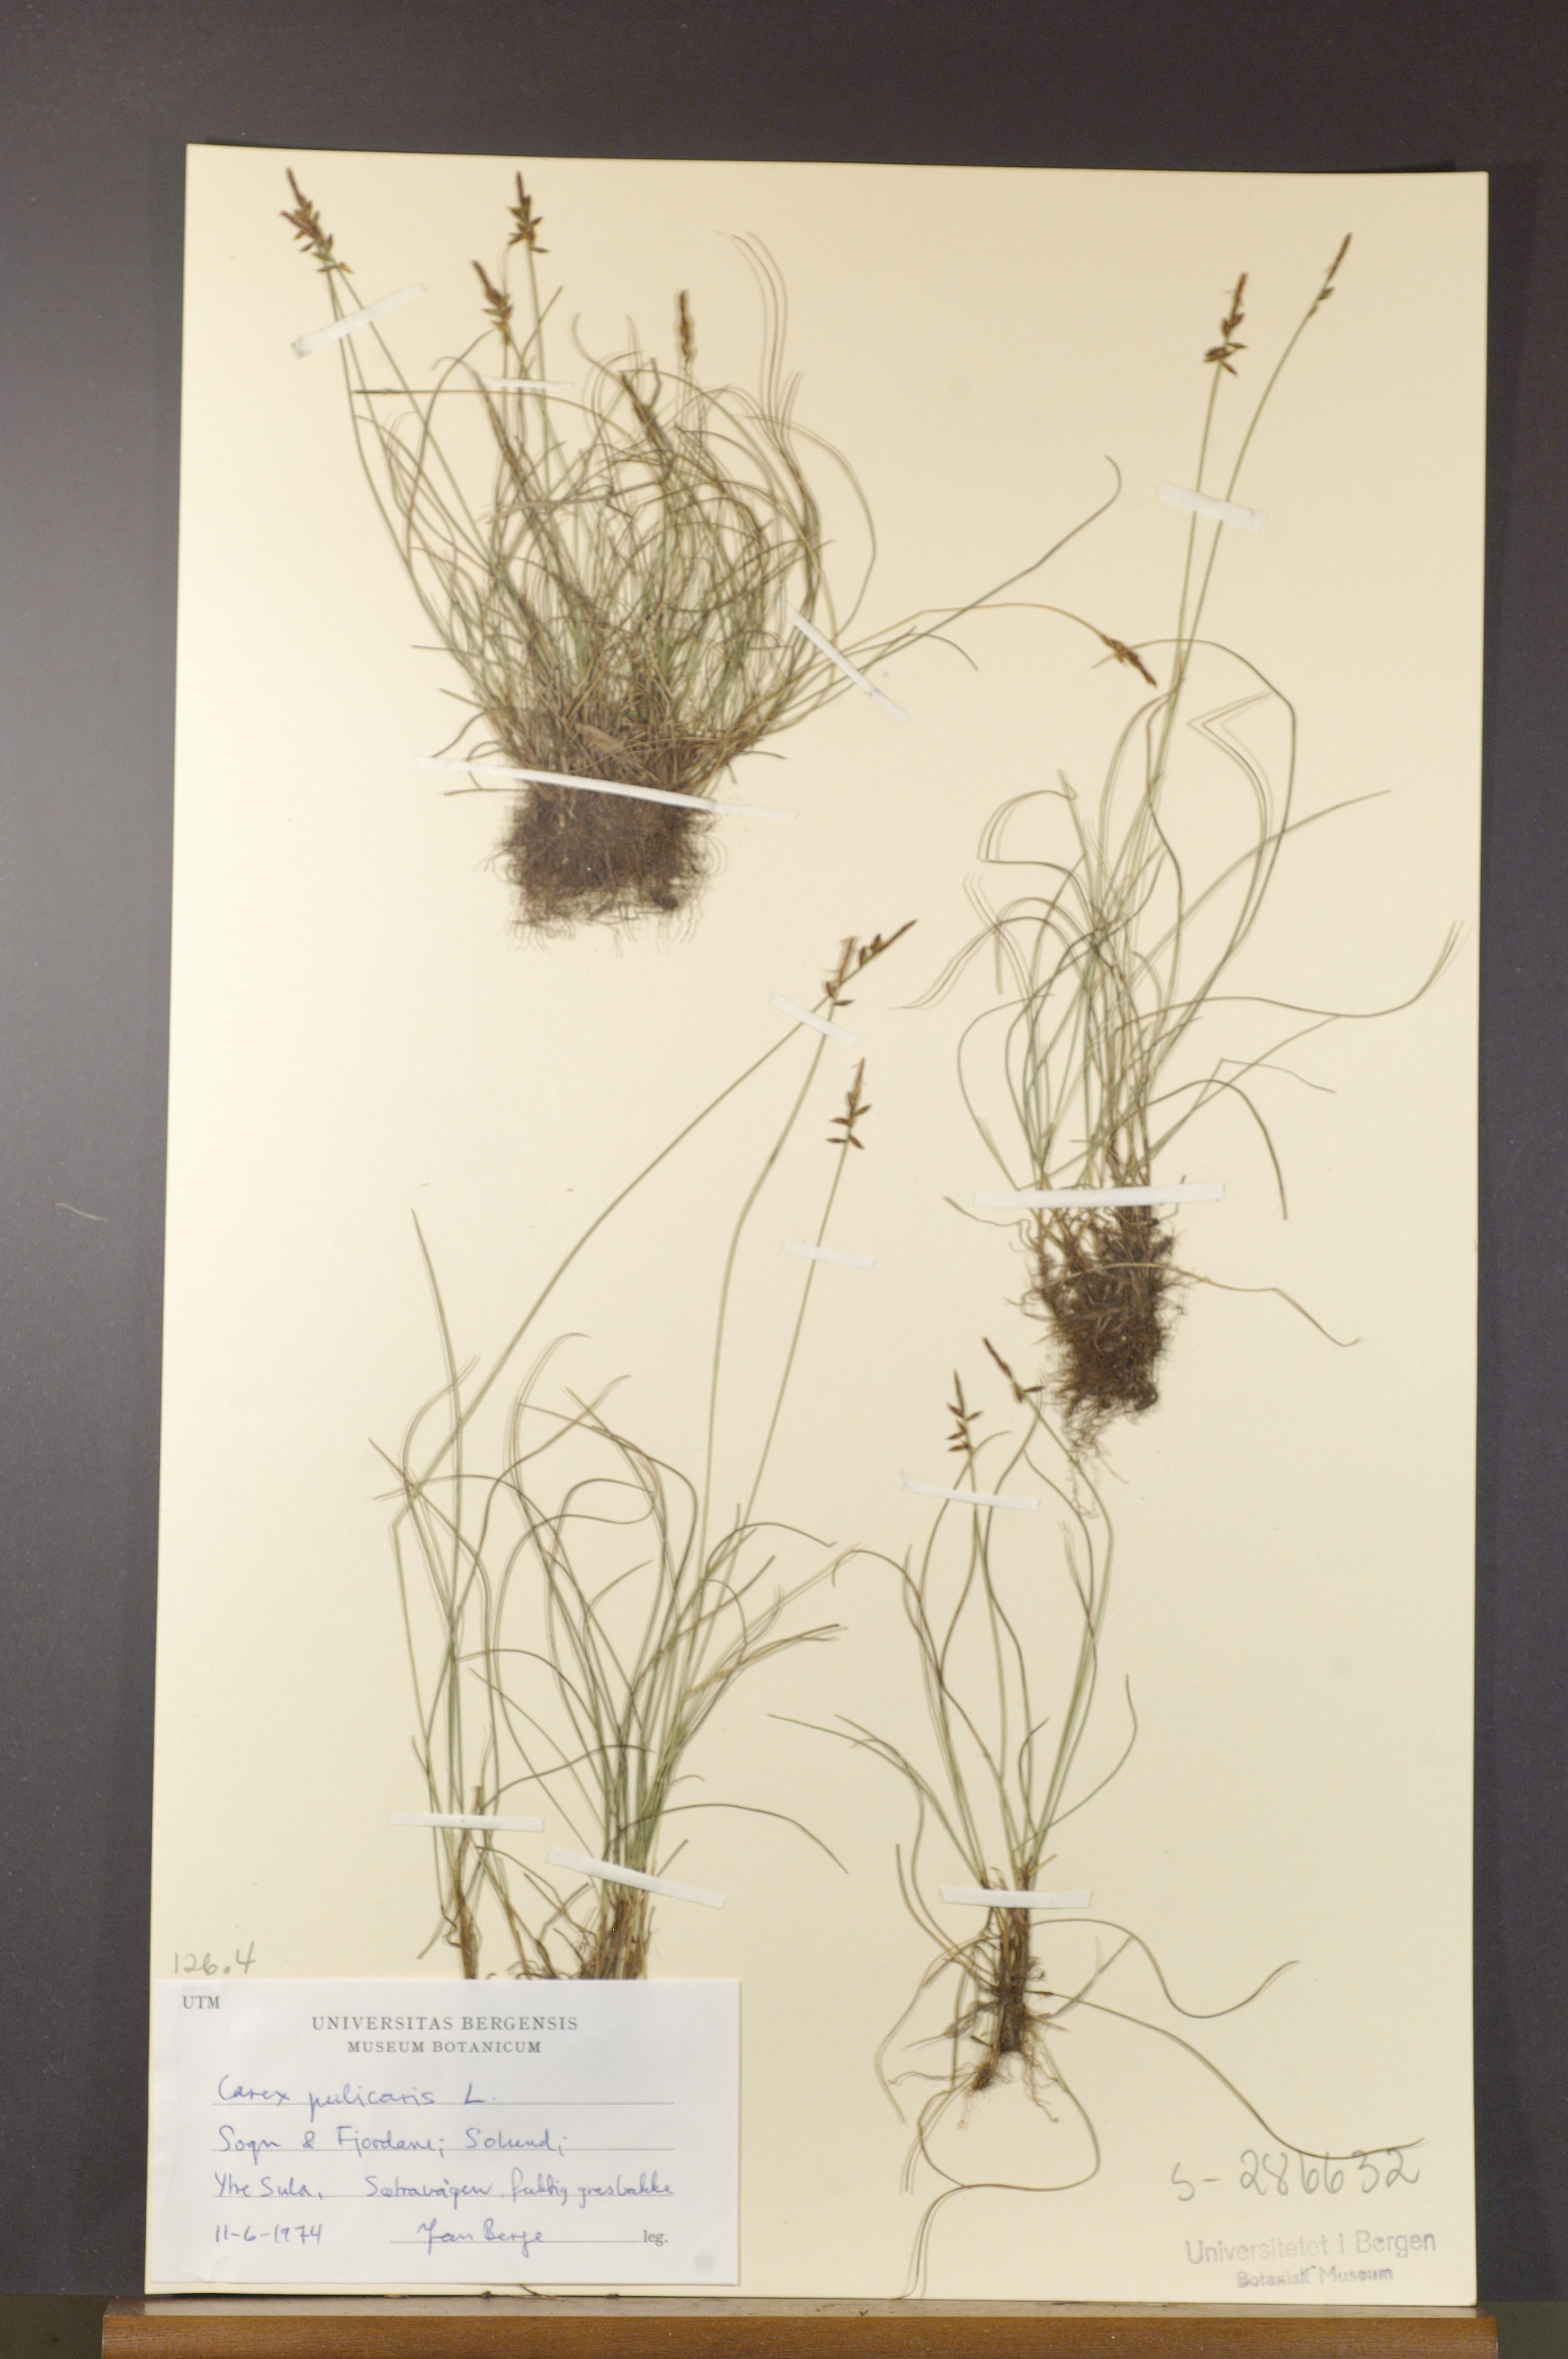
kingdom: Plantae
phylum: Tracheophyta
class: Liliopsida
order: Poales
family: Cyperaceae
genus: Carex
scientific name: Carex pulicaris
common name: Flea sedge
